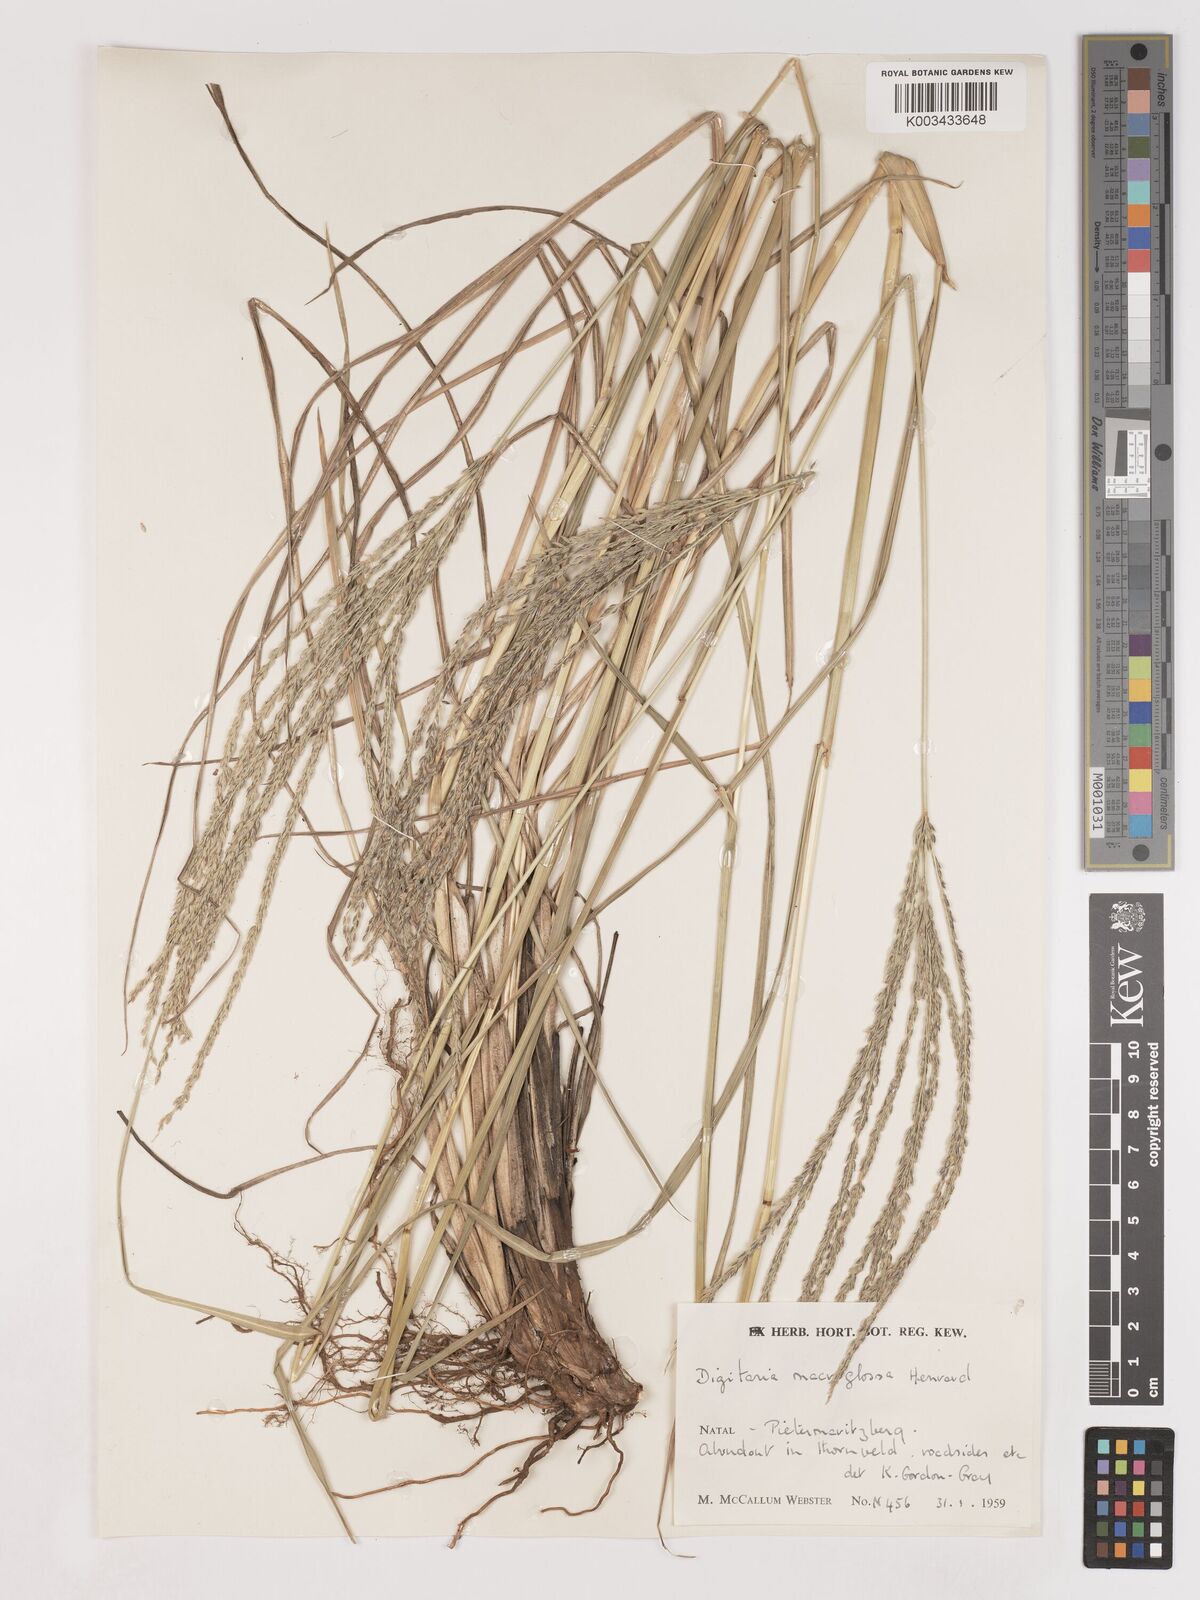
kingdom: Plantae
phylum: Tracheophyta
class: Liliopsida
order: Poales
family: Poaceae
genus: Digitaria
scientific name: Digitaria natalensis
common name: Coast finger grass
